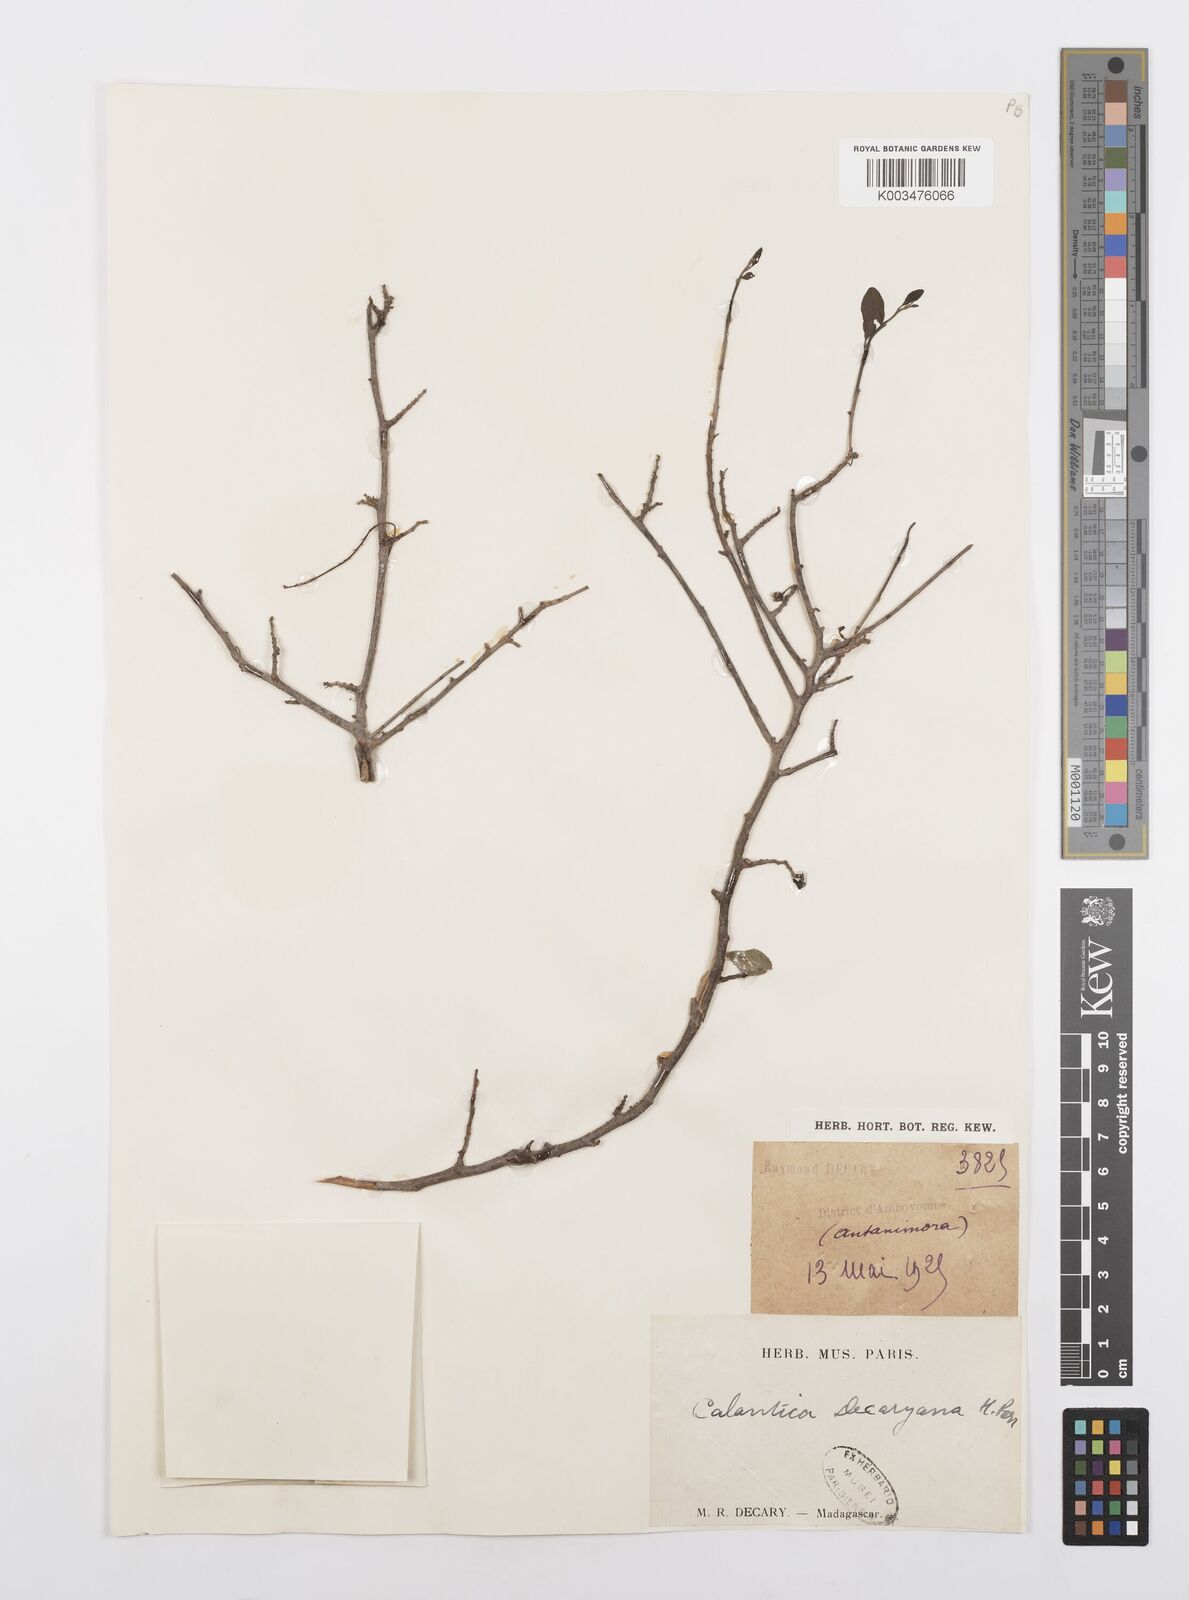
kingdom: Plantae
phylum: Tracheophyta
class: Magnoliopsida
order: Malpighiales
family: Salicaceae
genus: Calantica
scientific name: Calantica decaryana
